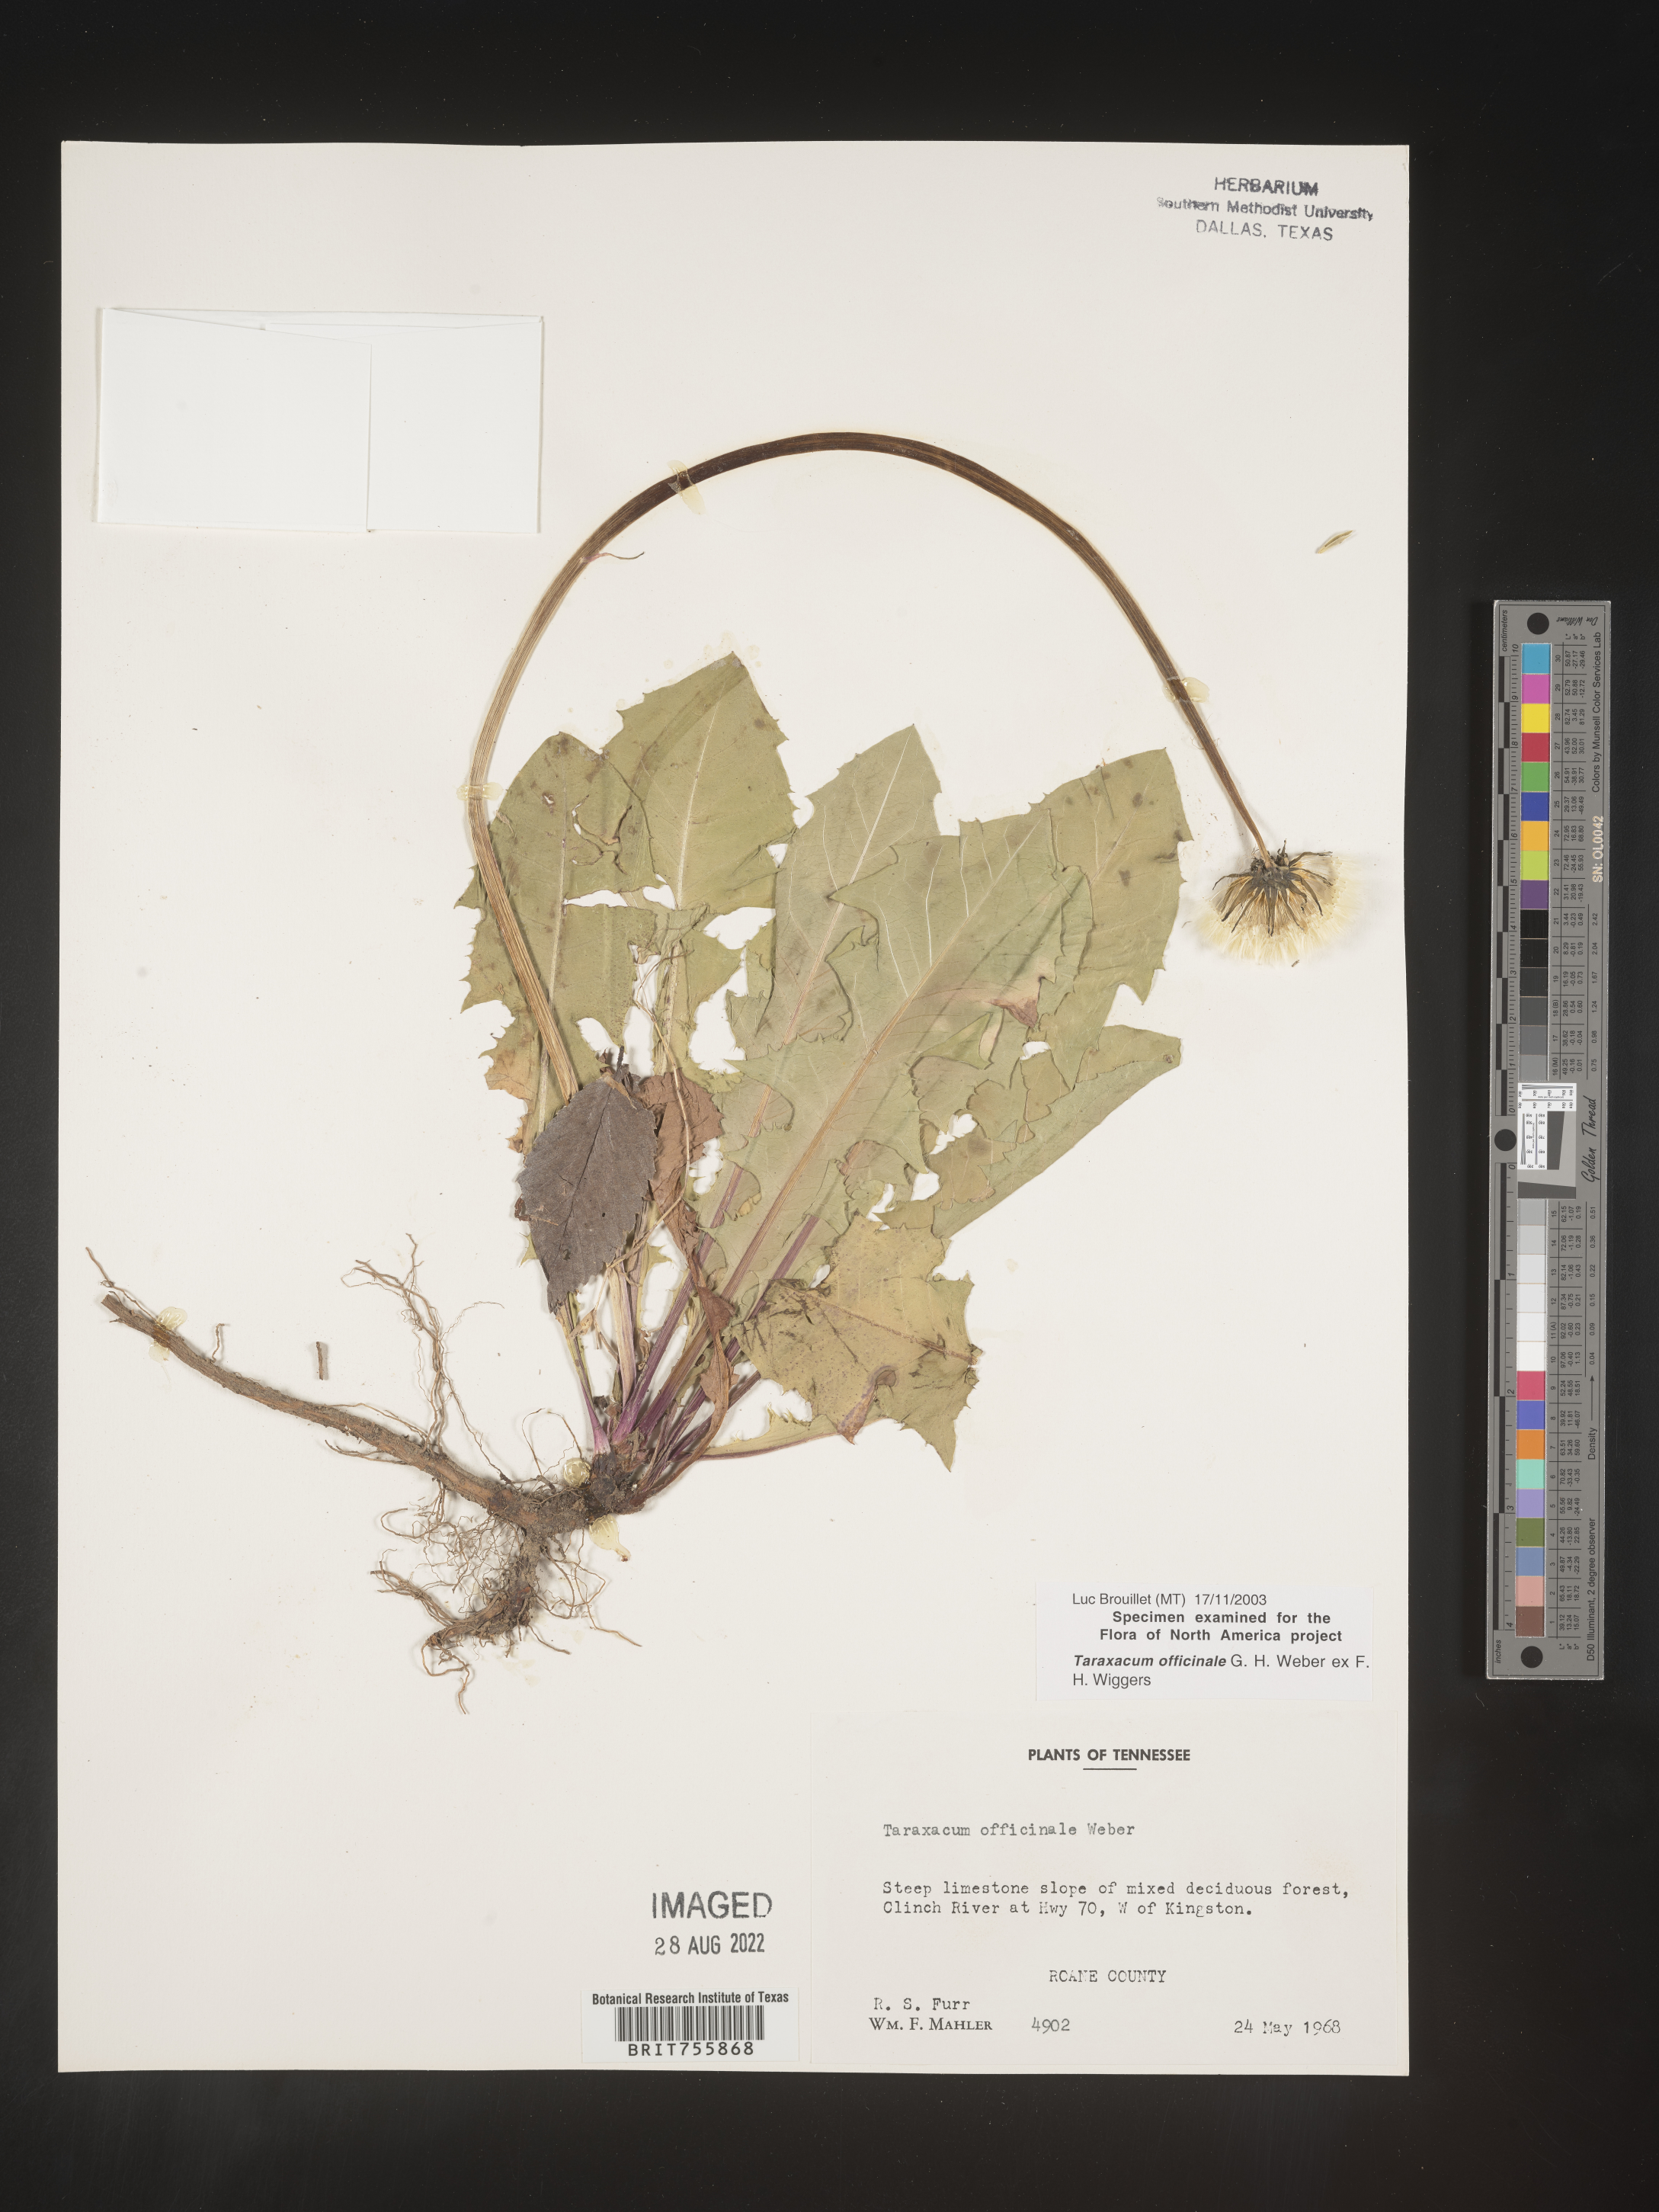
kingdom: Plantae
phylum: Tracheophyta
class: Magnoliopsida
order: Asterales
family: Asteraceae
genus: Taraxacum
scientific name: Taraxacum officinale
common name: Common dandelion
